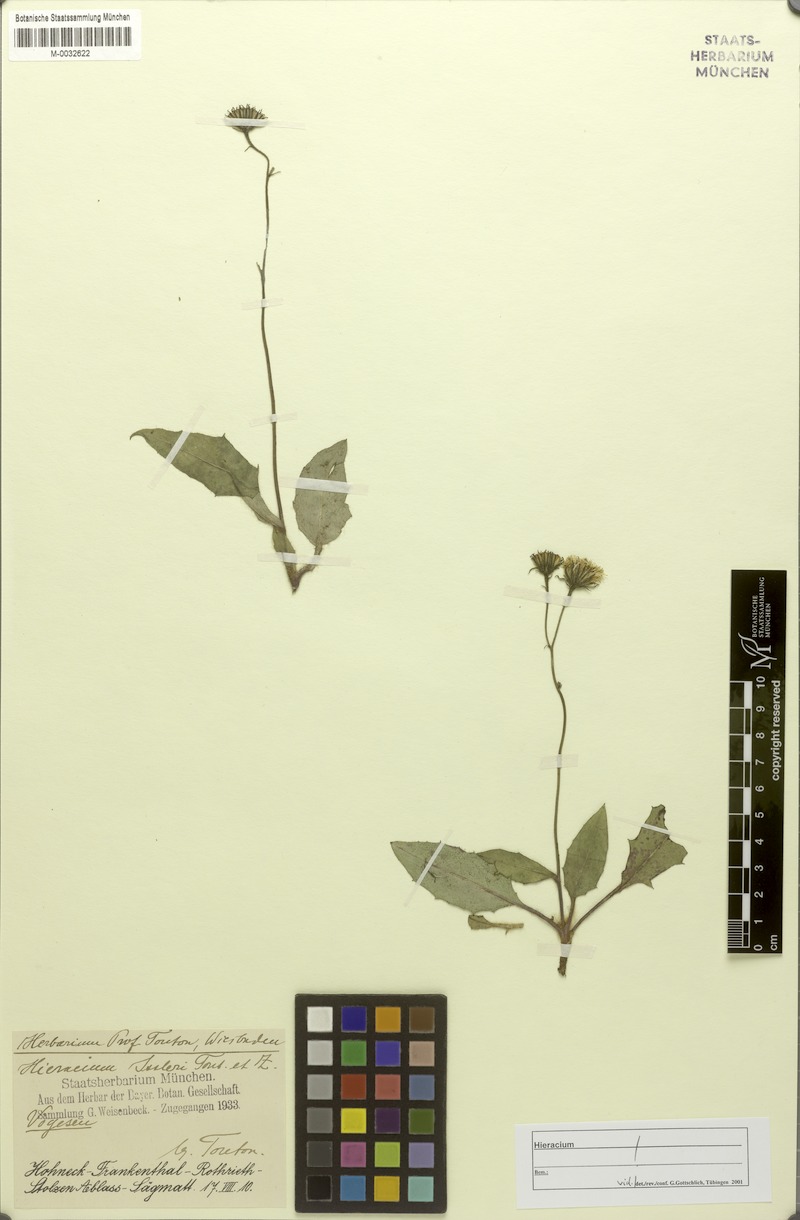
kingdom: Plantae
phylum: Tracheophyta
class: Magnoliopsida
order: Asterales
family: Asteraceae
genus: Hieracium
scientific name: Hieracium juranum
